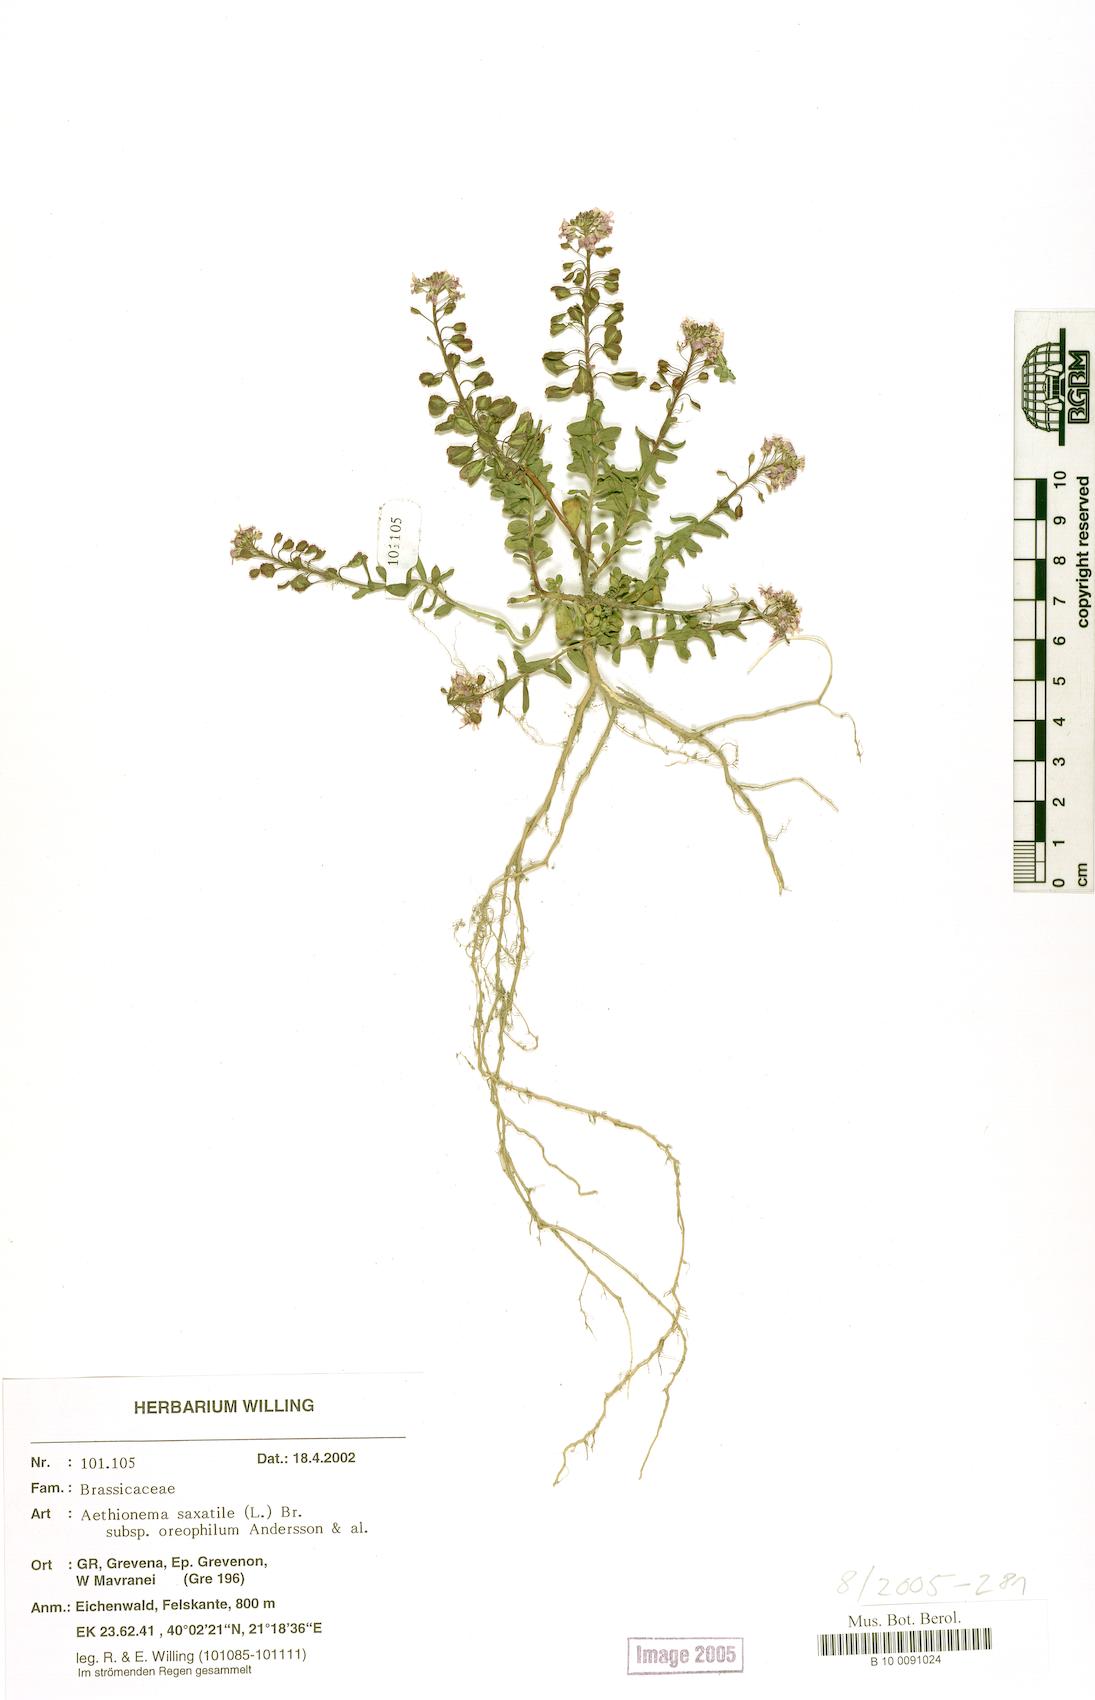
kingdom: Plantae
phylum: Tracheophyta
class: Magnoliopsida
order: Brassicales
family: Brassicaceae
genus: Aethionema
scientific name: Aethionema saxatile
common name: Burnt candytuft
